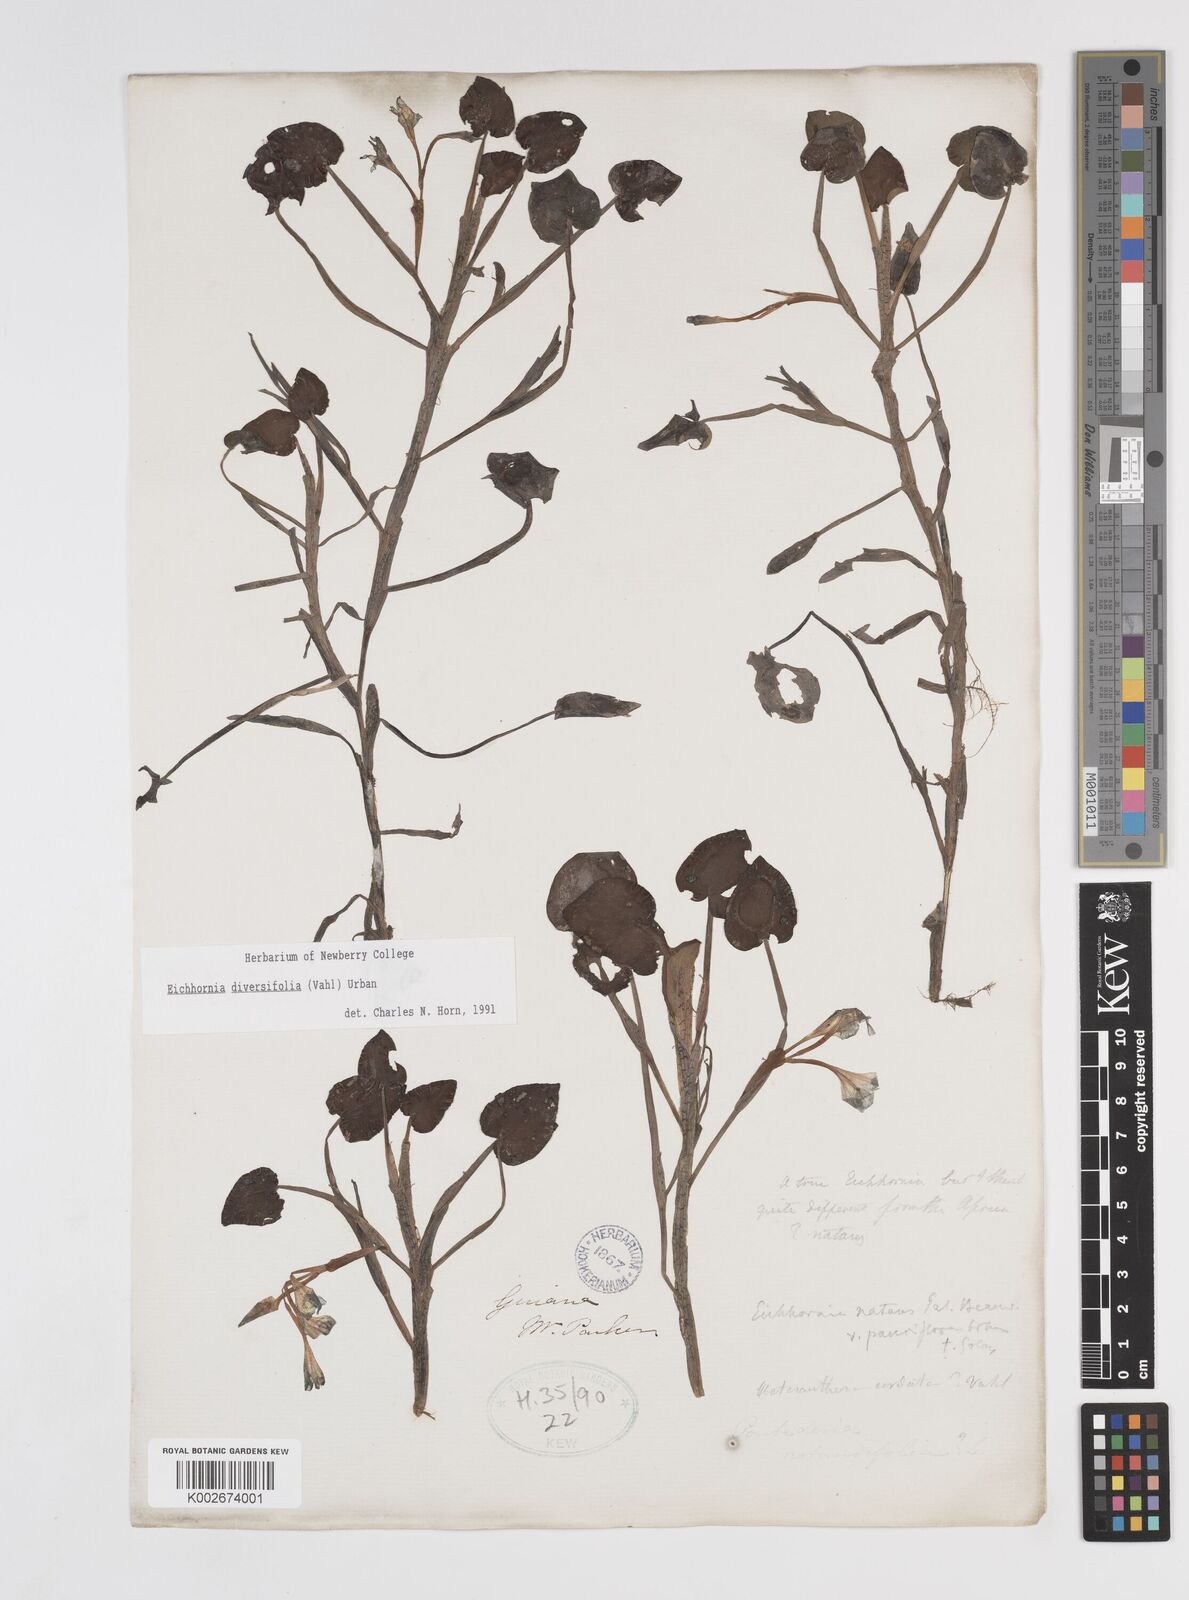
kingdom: Plantae
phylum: Tracheophyta
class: Liliopsida
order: Commelinales
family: Pontederiaceae
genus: Pontederia
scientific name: Pontederia diversifolia
